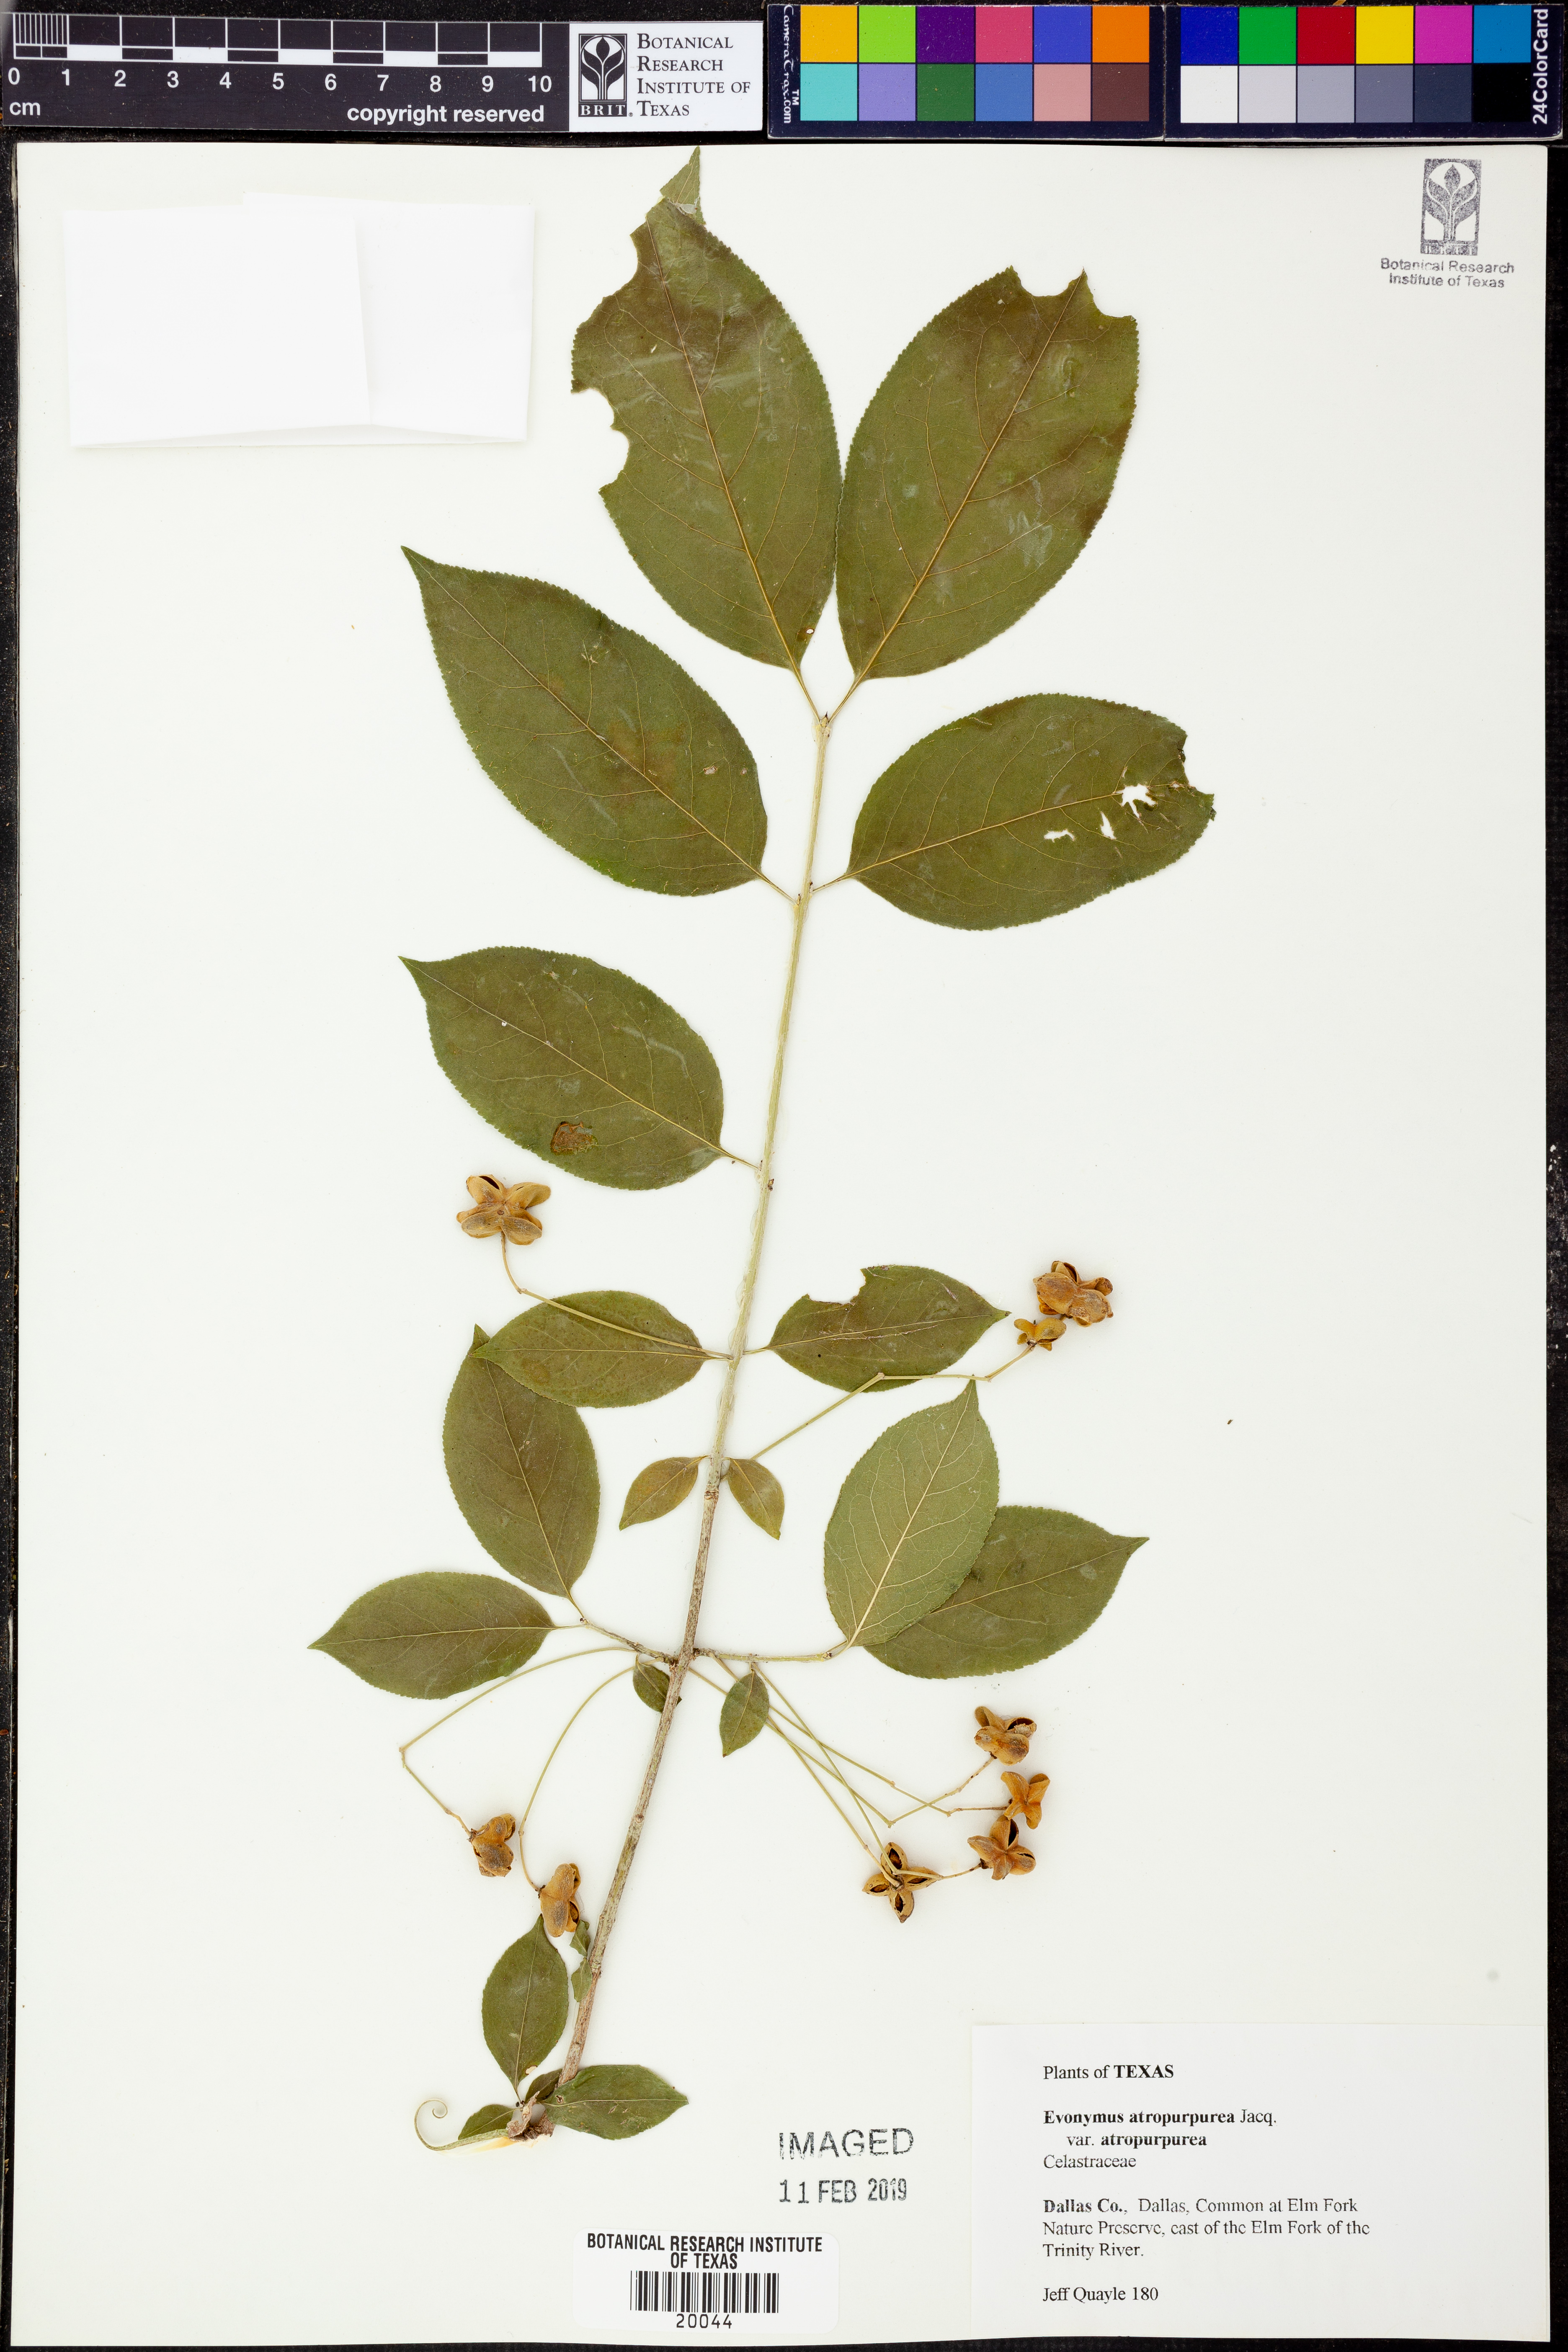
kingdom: Plantae
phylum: Tracheophyta
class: Magnoliopsida
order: Celastrales
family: Celastraceae
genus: Euonymus
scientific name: Euonymus atropurpureus
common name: Eastern wahoo
